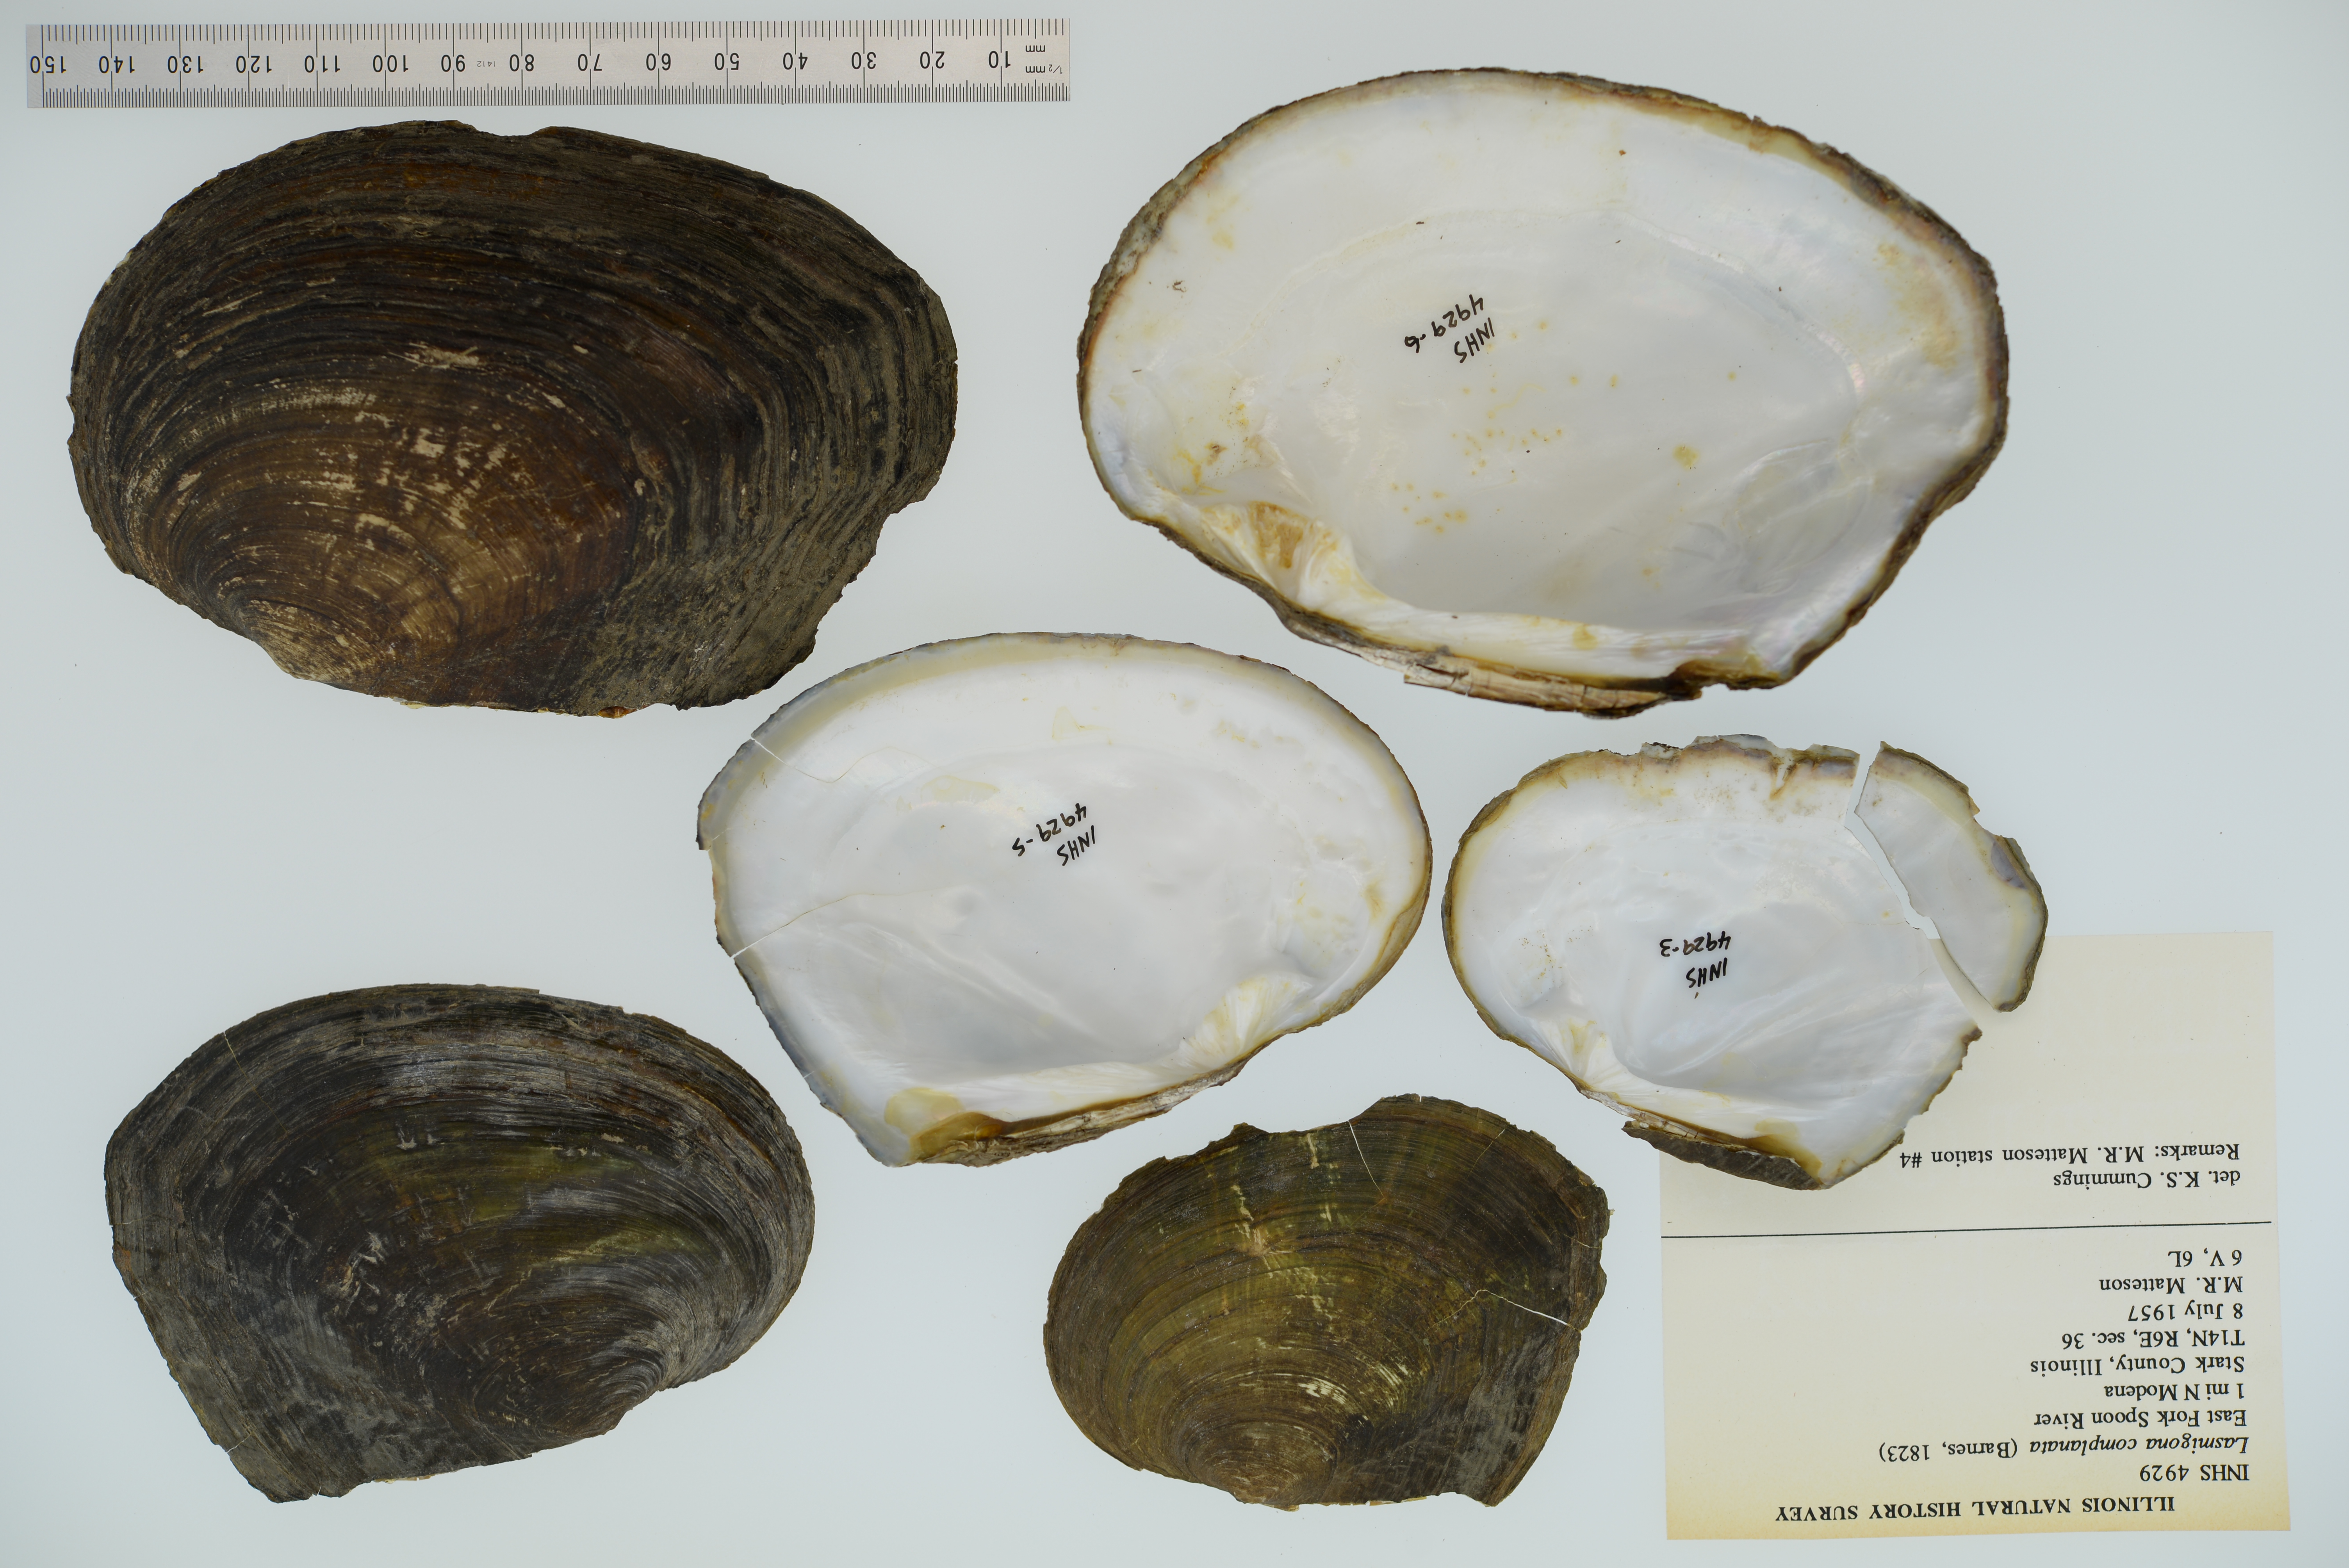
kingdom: Animalia
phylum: Mollusca
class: Bivalvia
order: Unionida
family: Unionidae
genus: Lasmigona
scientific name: Lasmigona complanata
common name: White heelsplitter
